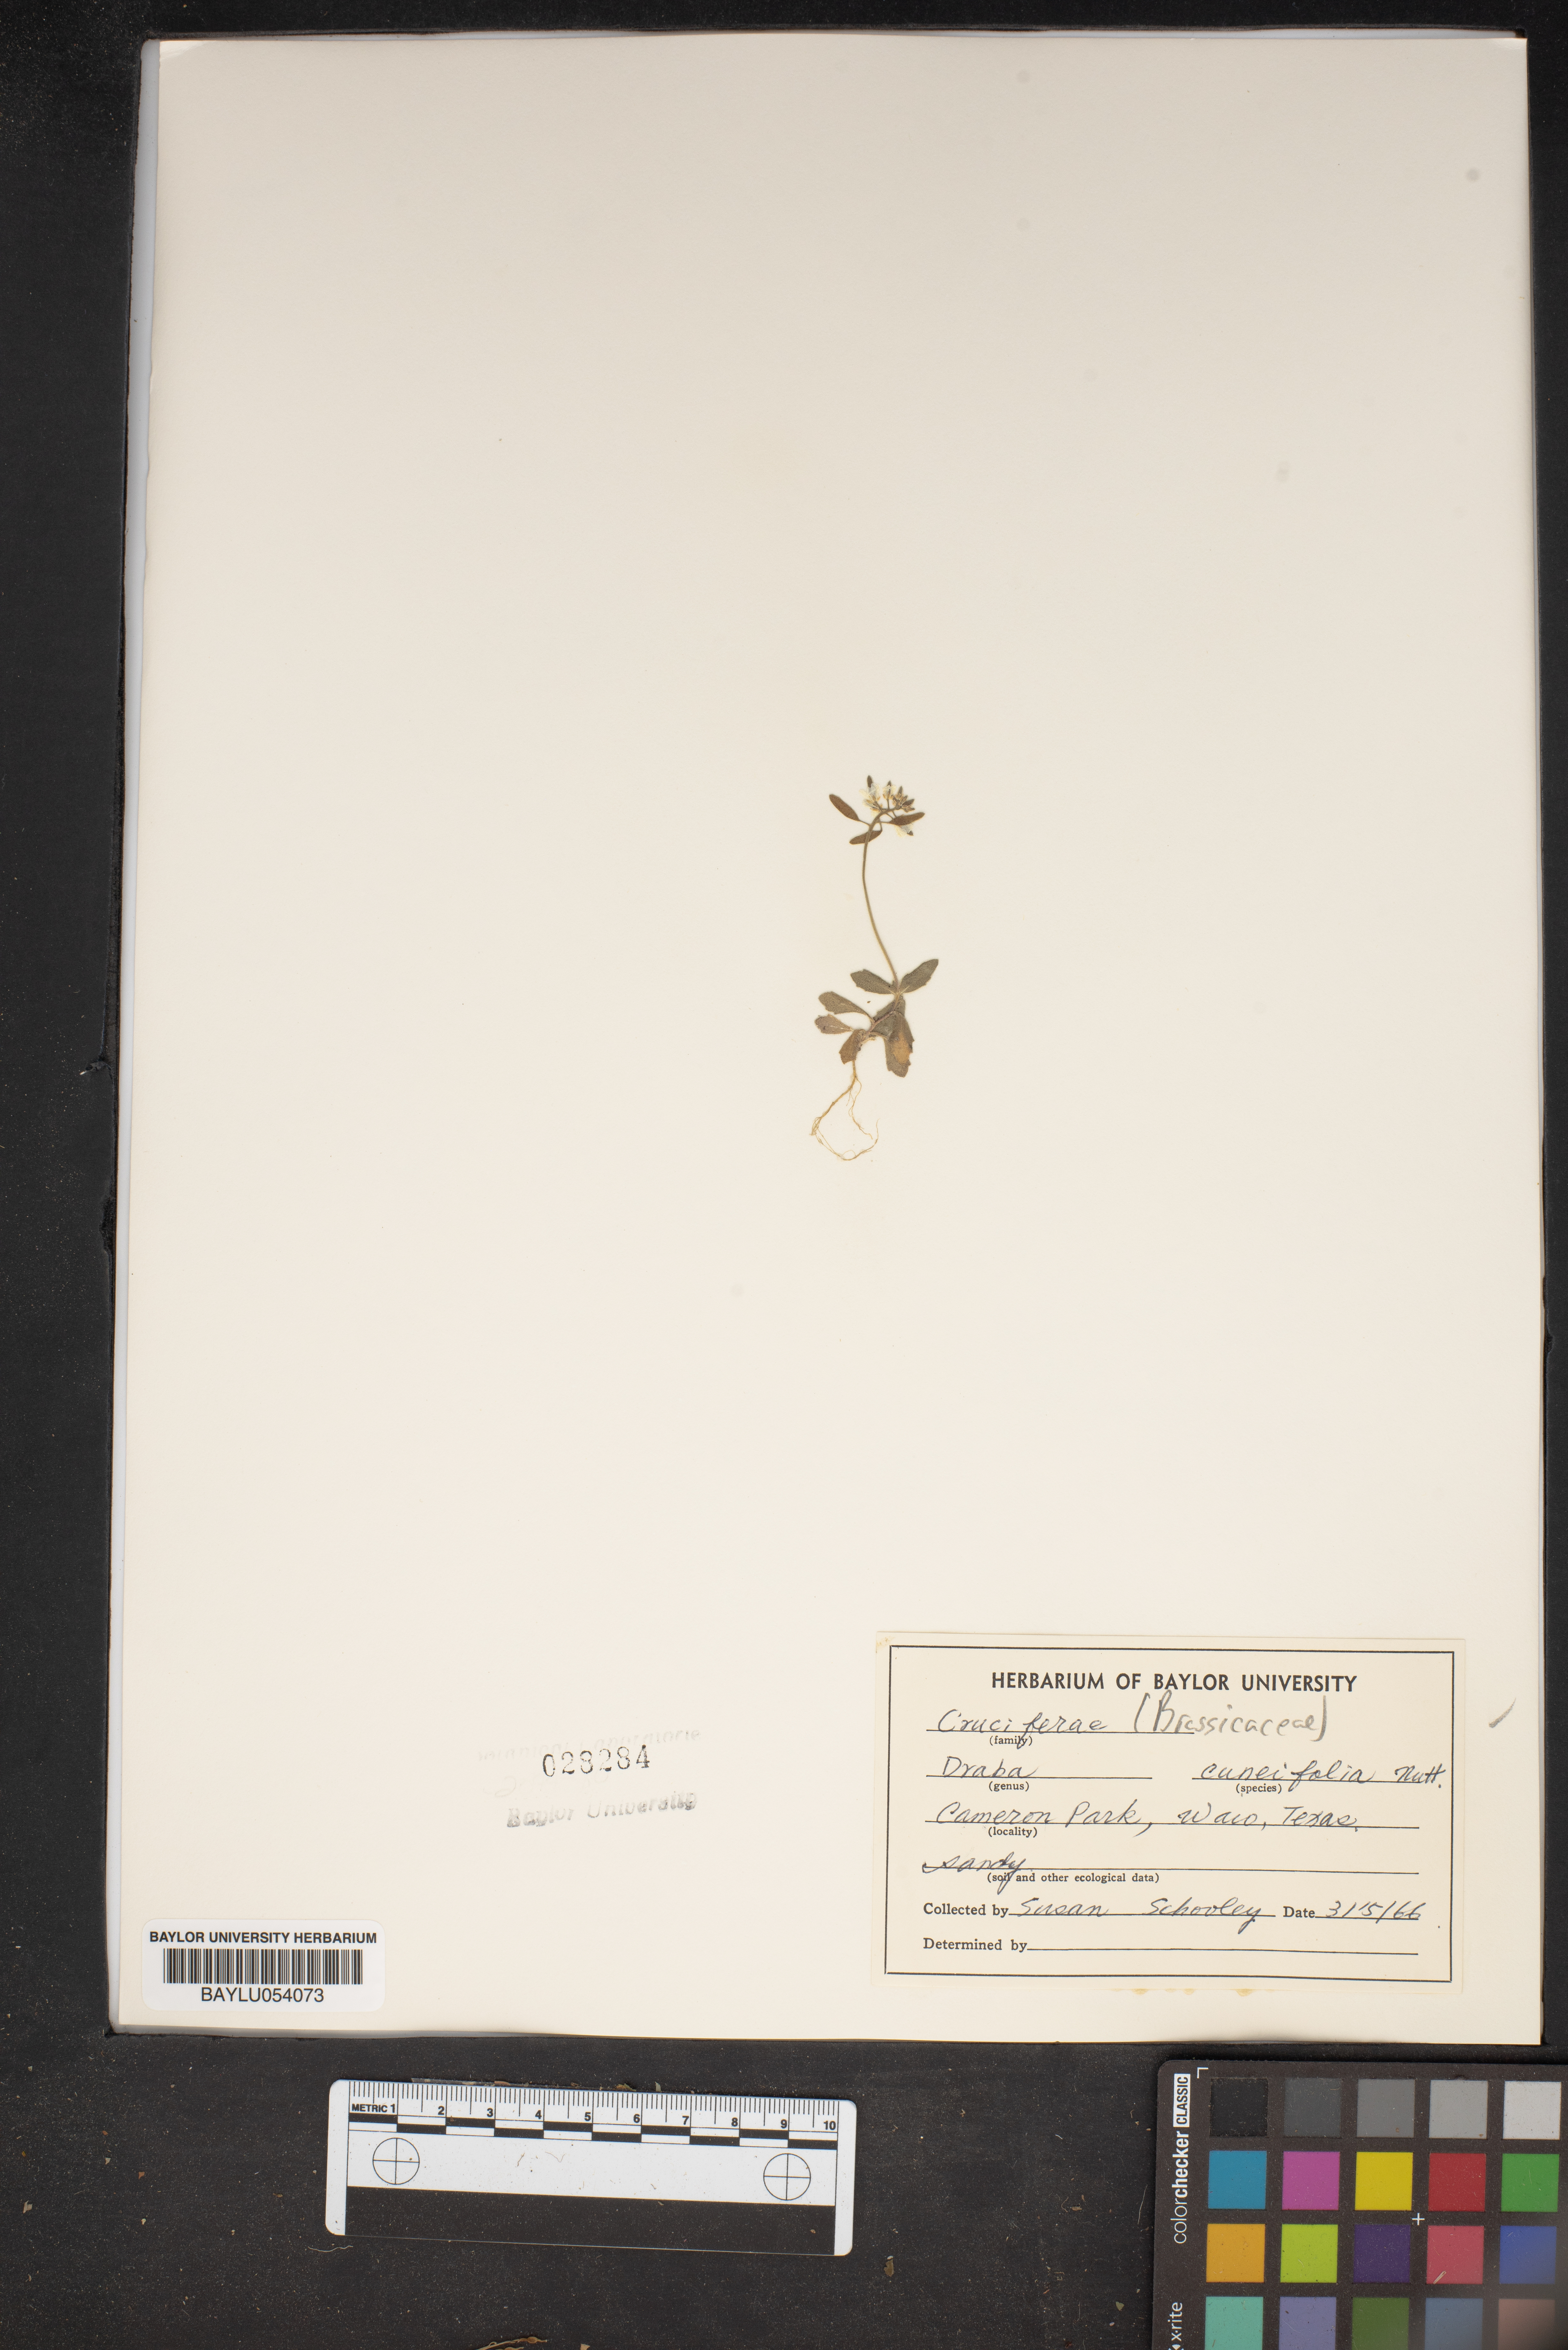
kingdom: Plantae
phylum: Tracheophyta
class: Magnoliopsida
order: Brassicales
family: Brassicaceae
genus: Tomostima
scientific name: Tomostima cuneifolia
